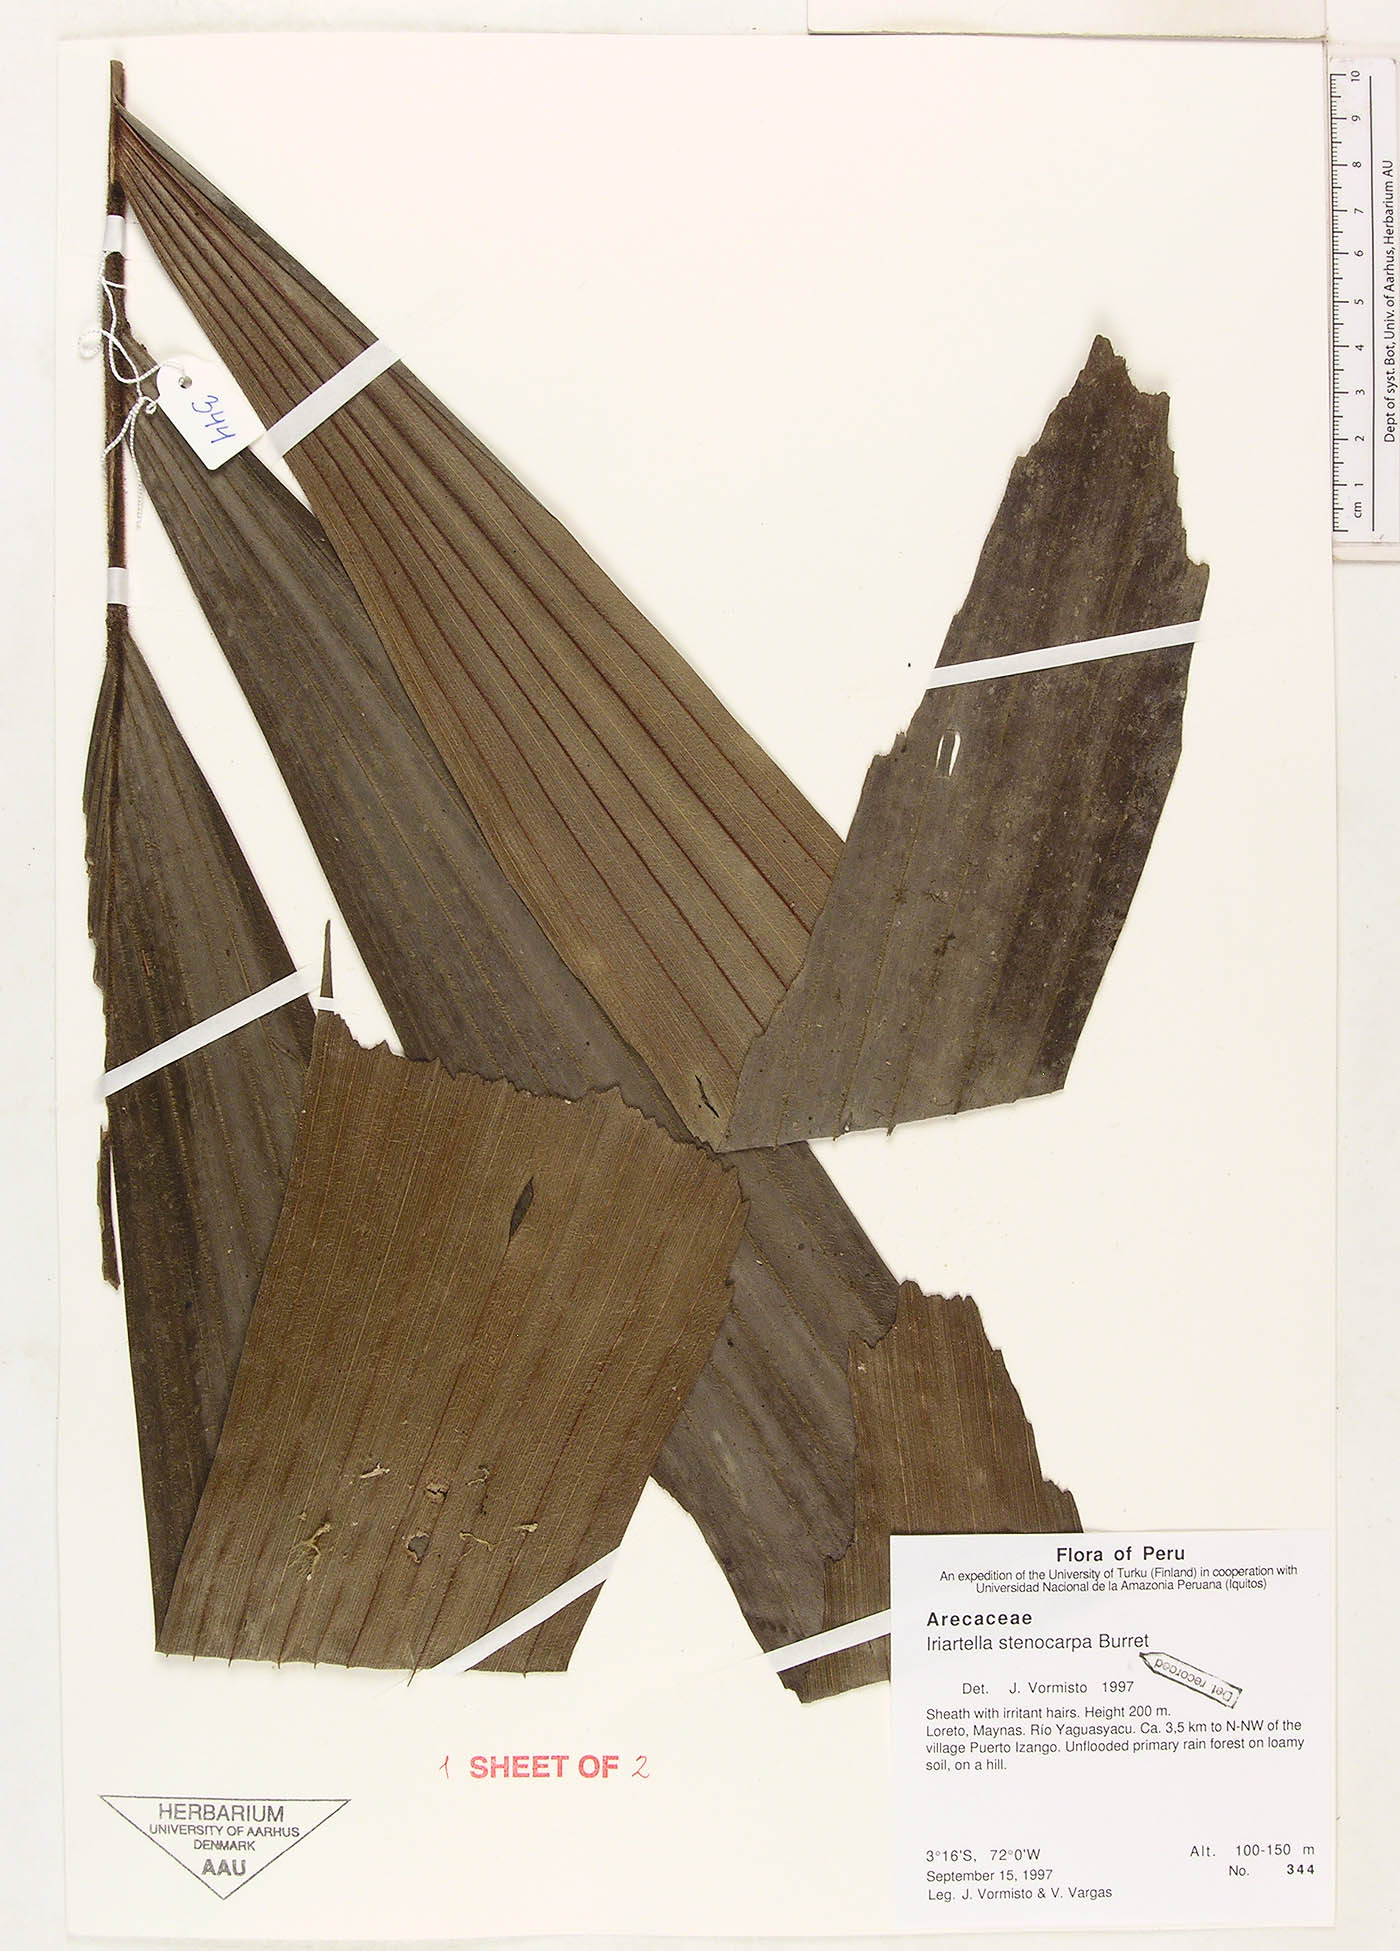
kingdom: Plantae
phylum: Tracheophyta
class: Liliopsida
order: Arecales
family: Arecaceae
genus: Iriartella
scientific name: Iriartella stenocarpa
